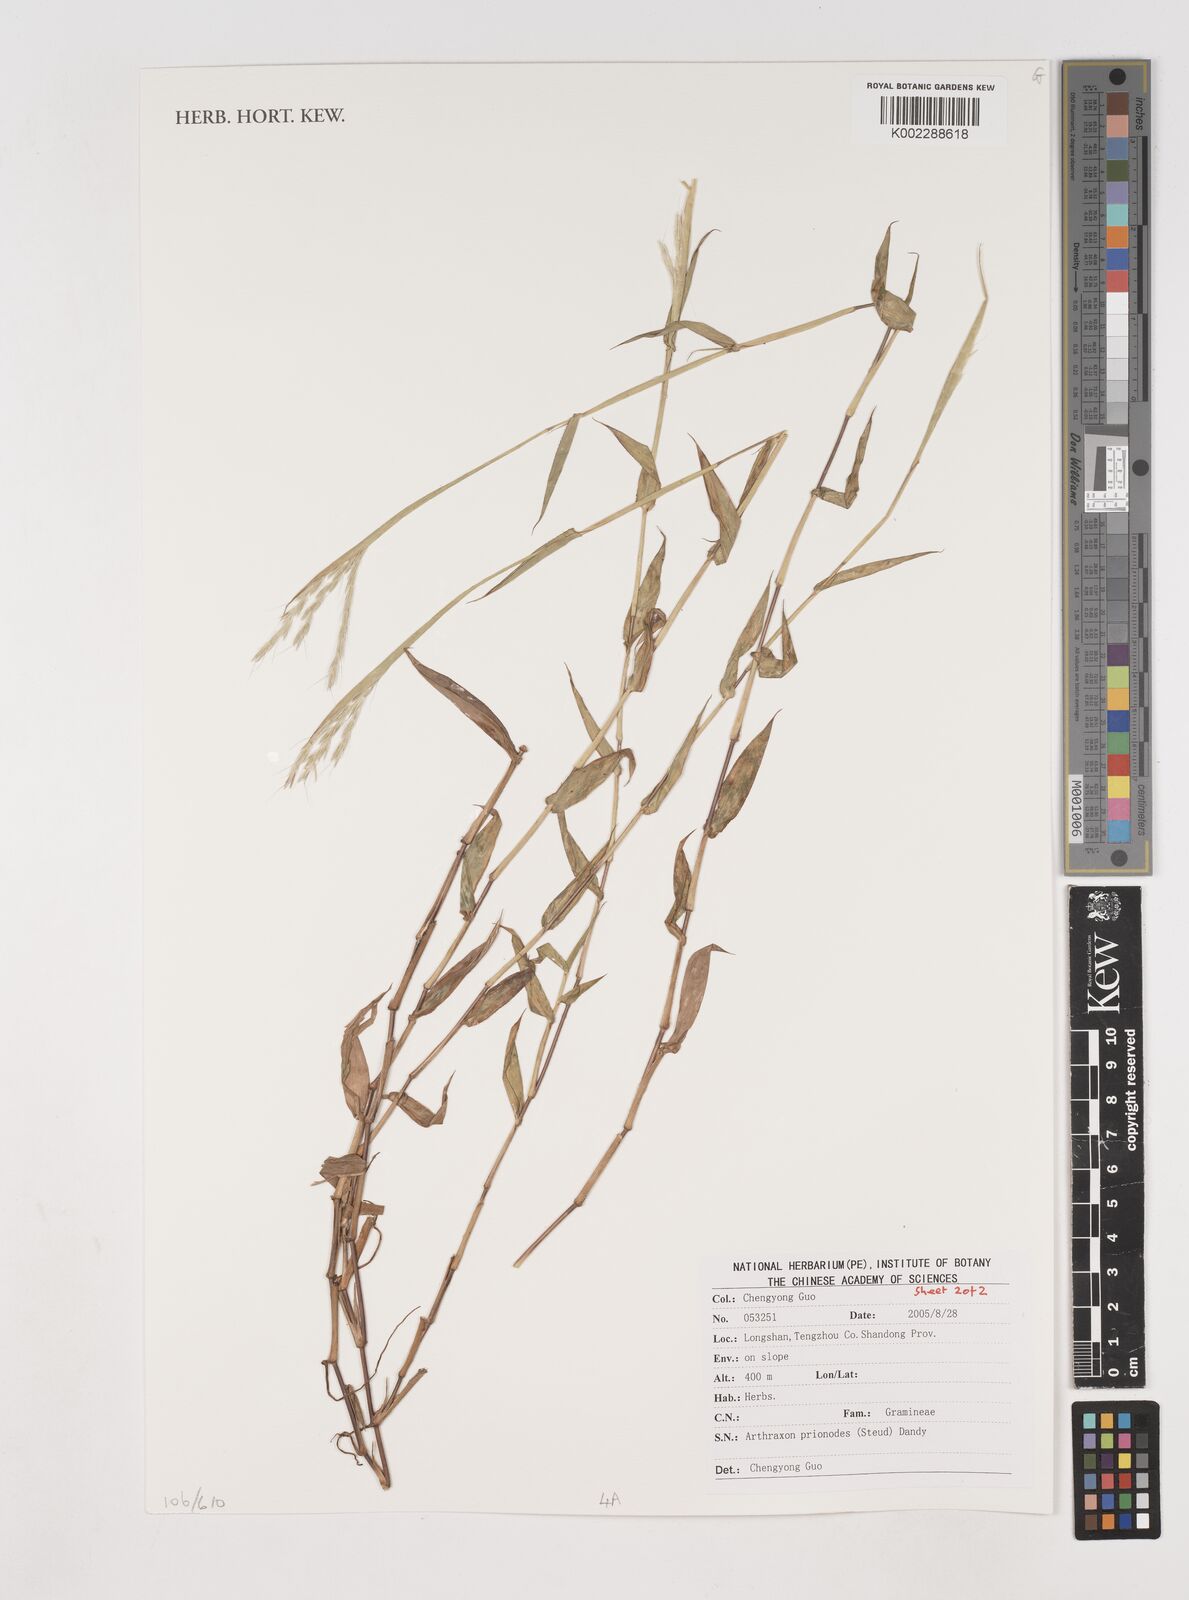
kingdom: Plantae
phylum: Tracheophyta
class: Liliopsida
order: Poales
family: Poaceae
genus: Arthraxon
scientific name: Arthraxon prionodes
